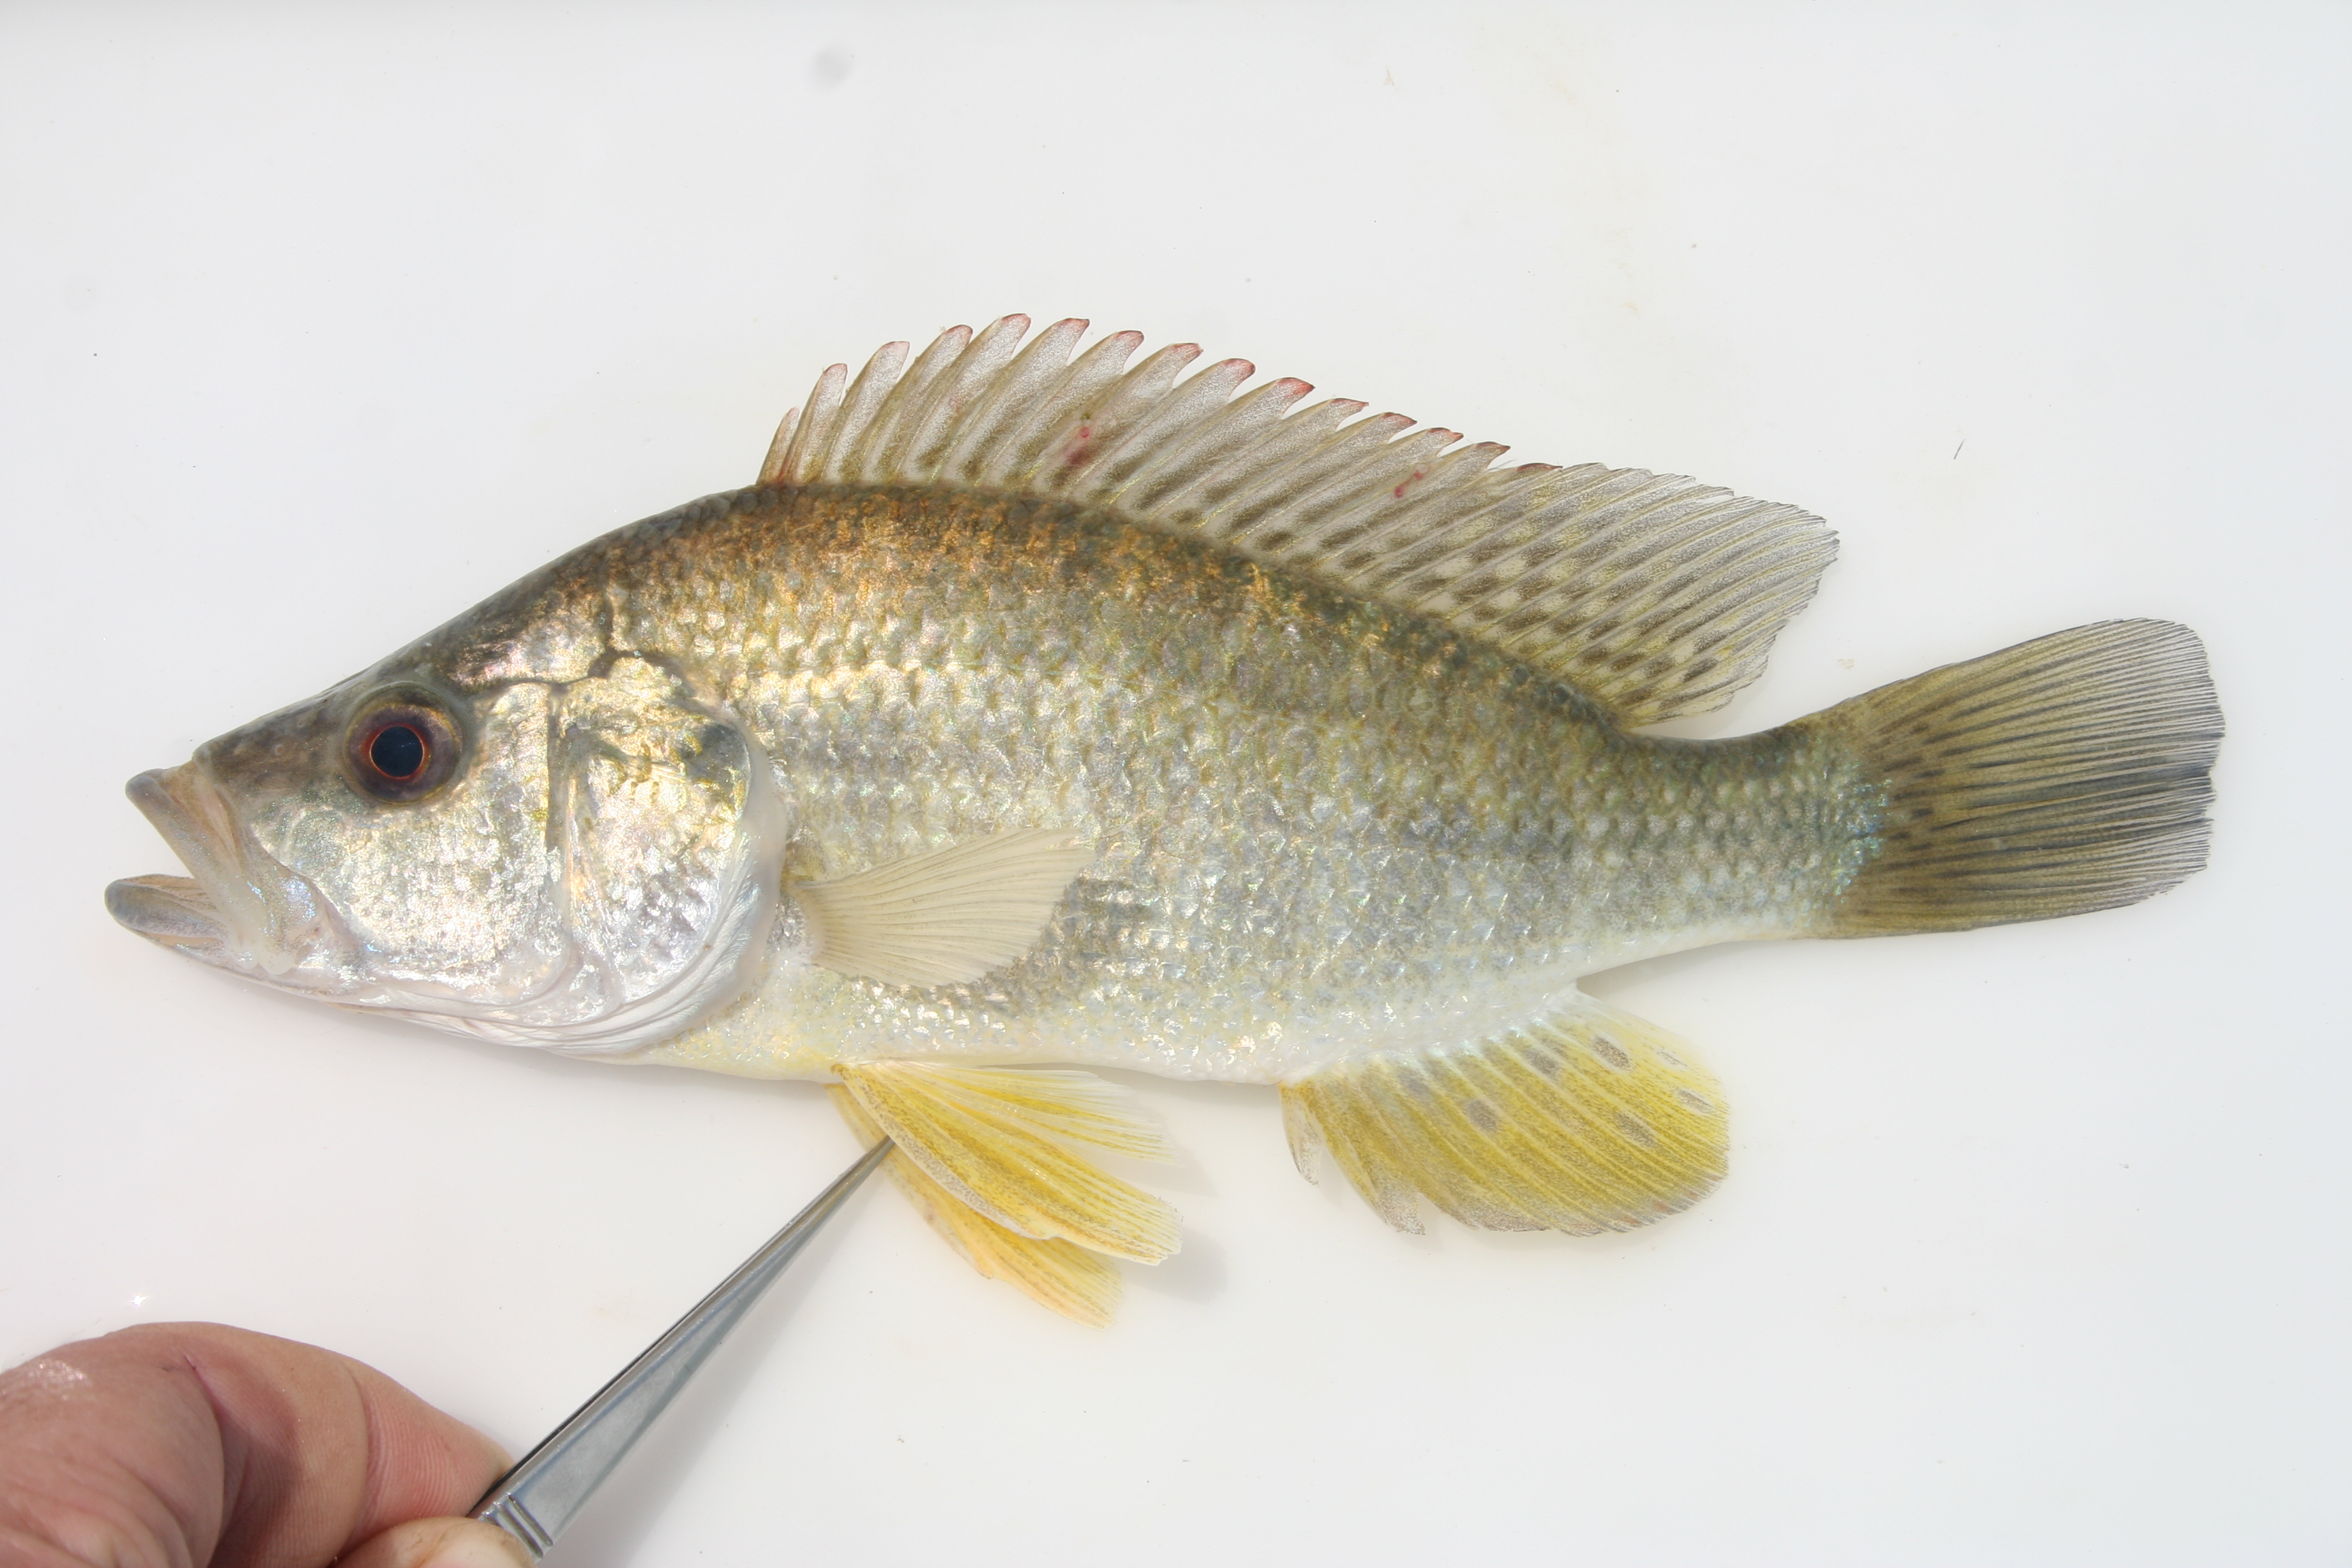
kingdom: Animalia
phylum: Chordata
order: Perciformes
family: Cichlidae
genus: Serranochromis
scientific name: Serranochromis
